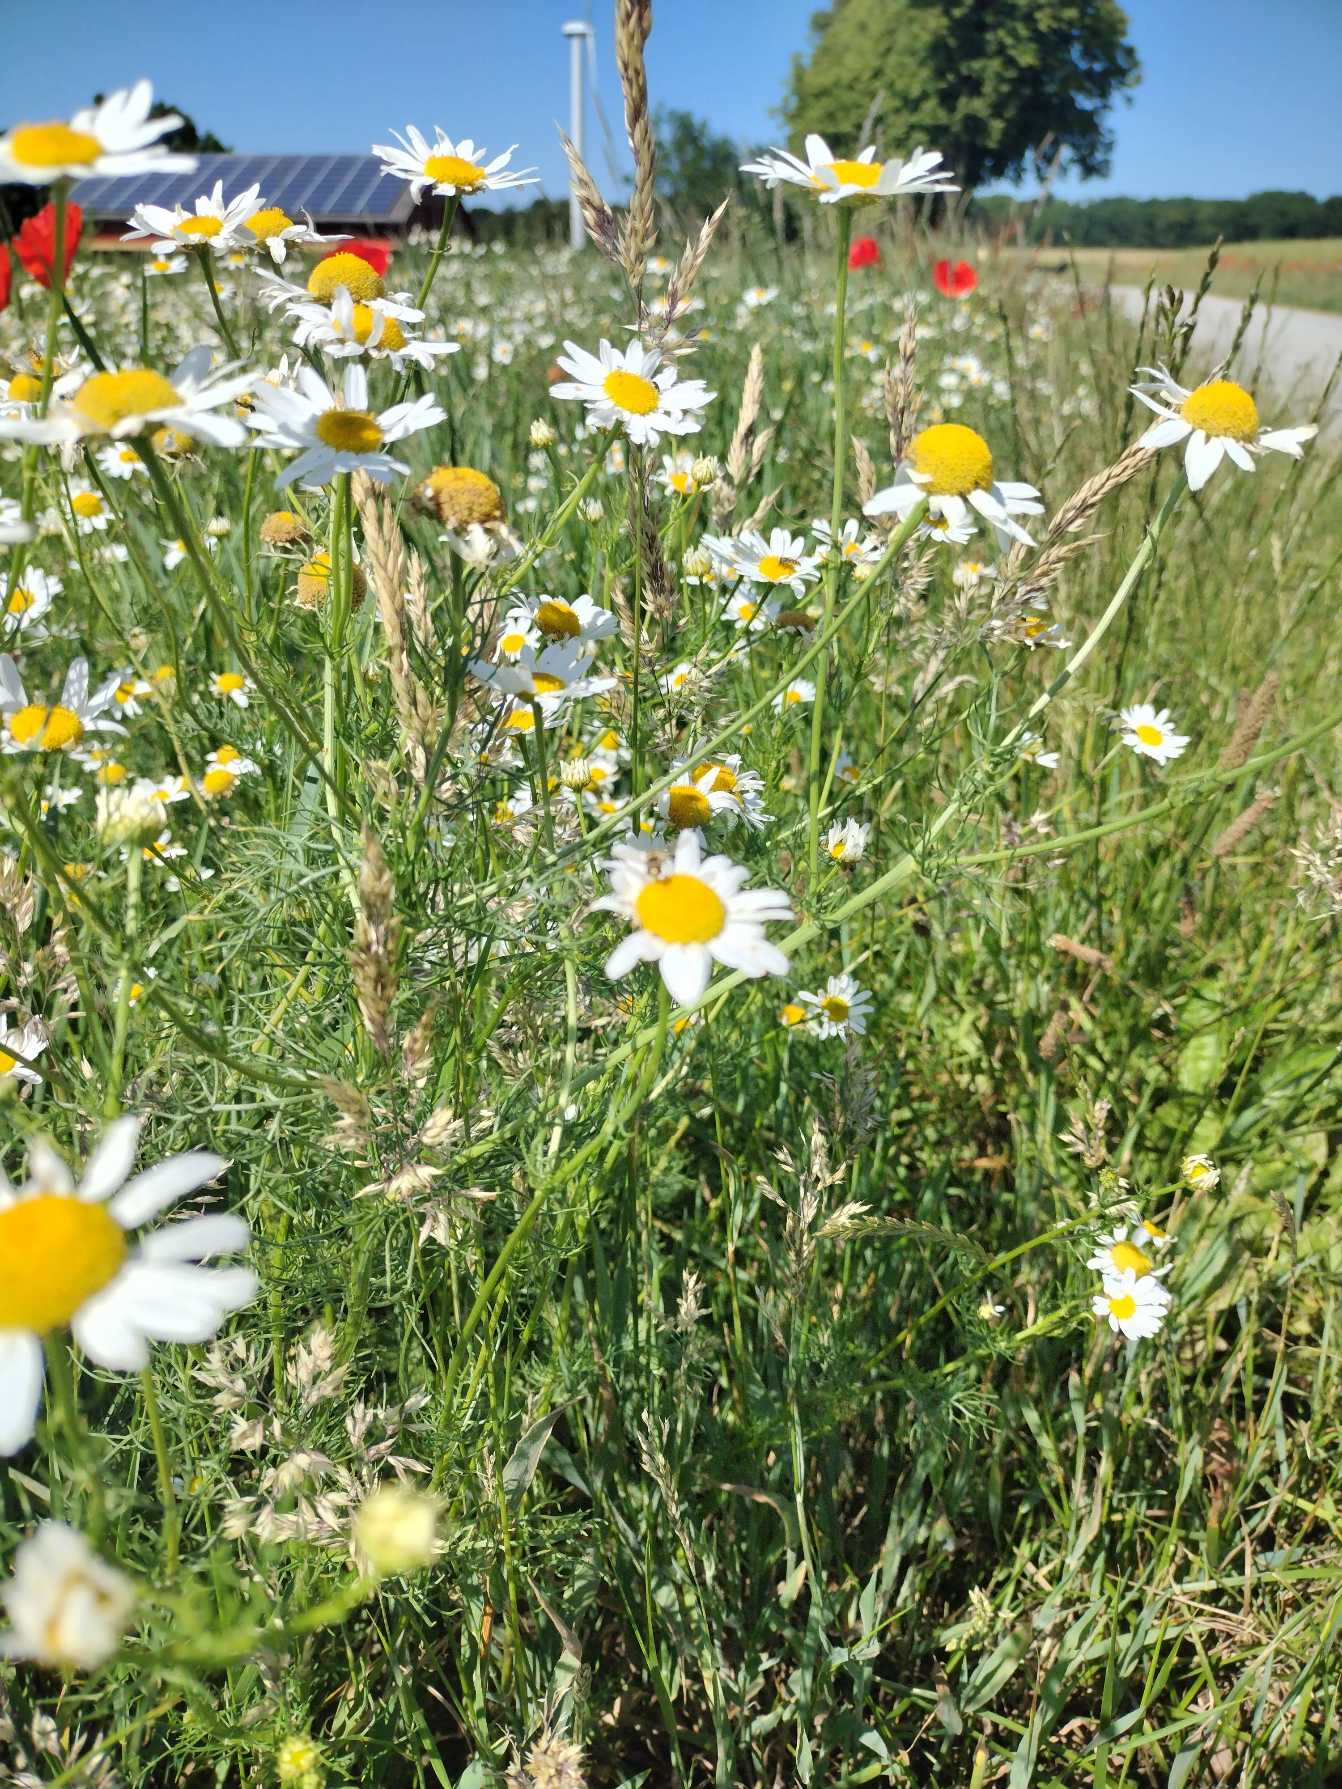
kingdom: Plantae
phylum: Tracheophyta
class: Magnoliopsida
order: Asterales
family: Asteraceae
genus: Tripleurospermum
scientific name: Tripleurospermum inodorum
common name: Lugtløs kamille
